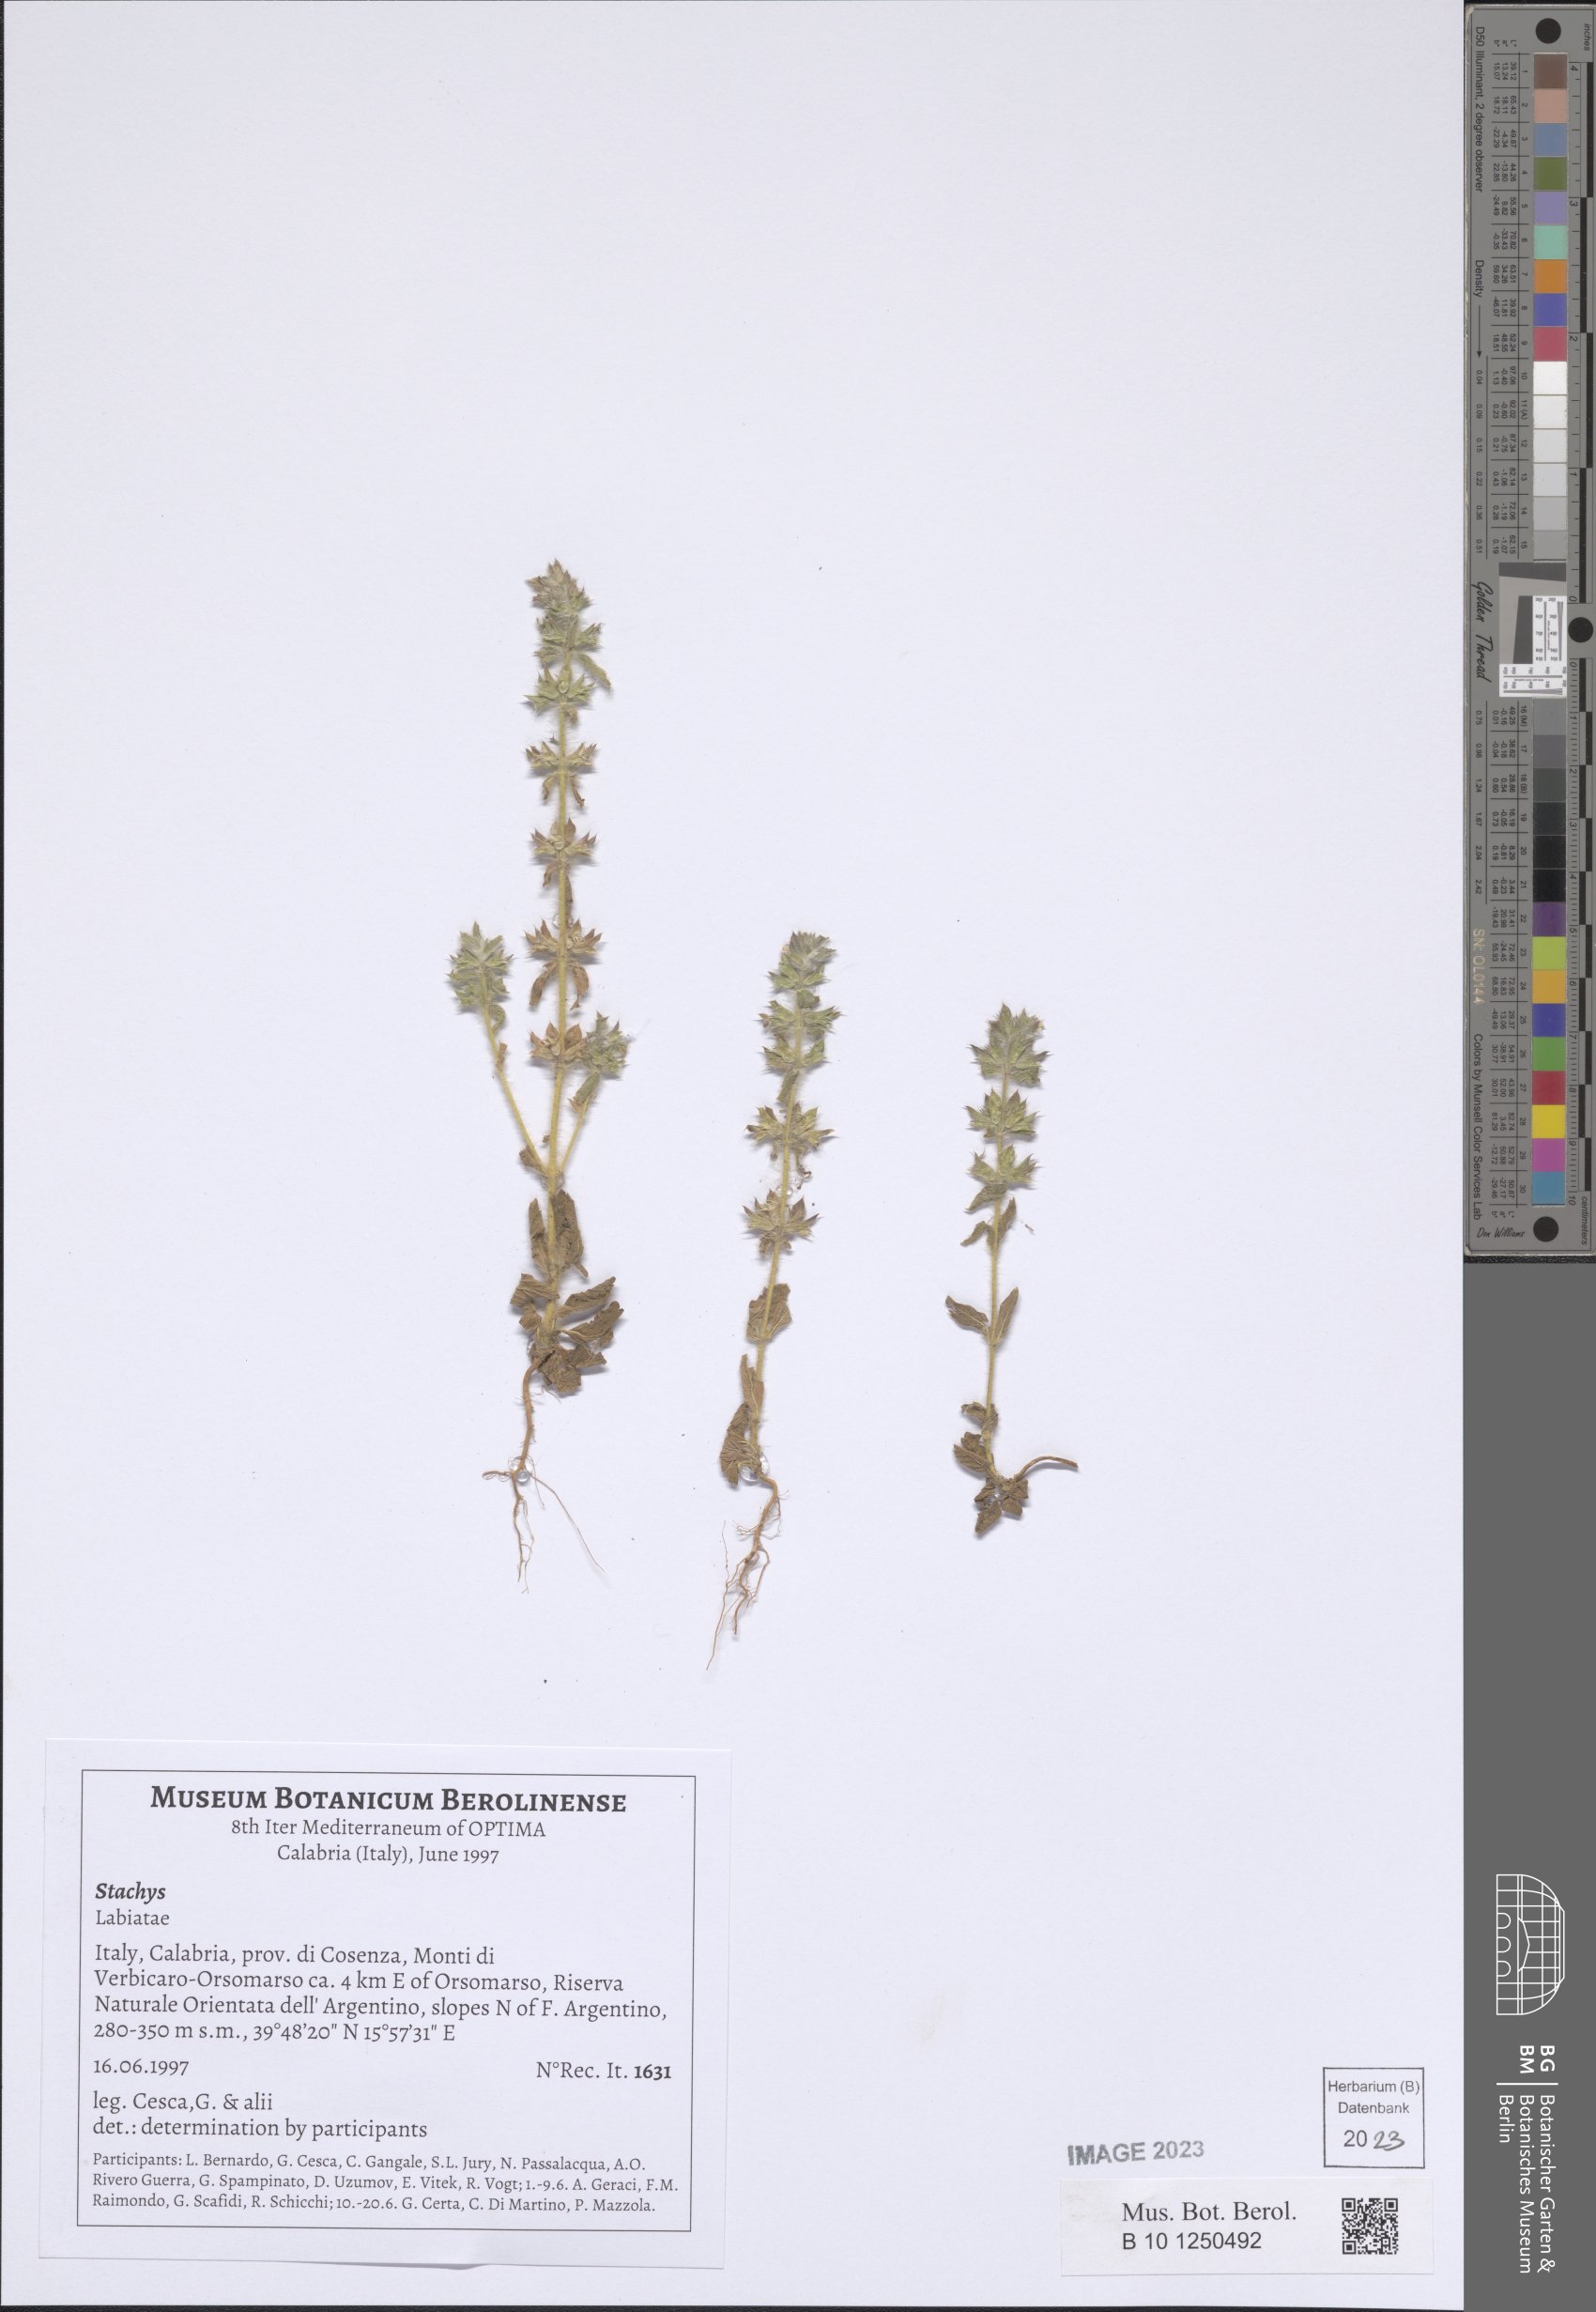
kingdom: Plantae
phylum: Tracheophyta
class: Magnoliopsida
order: Lamiales
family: Lamiaceae
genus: Stachys
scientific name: Stachys
